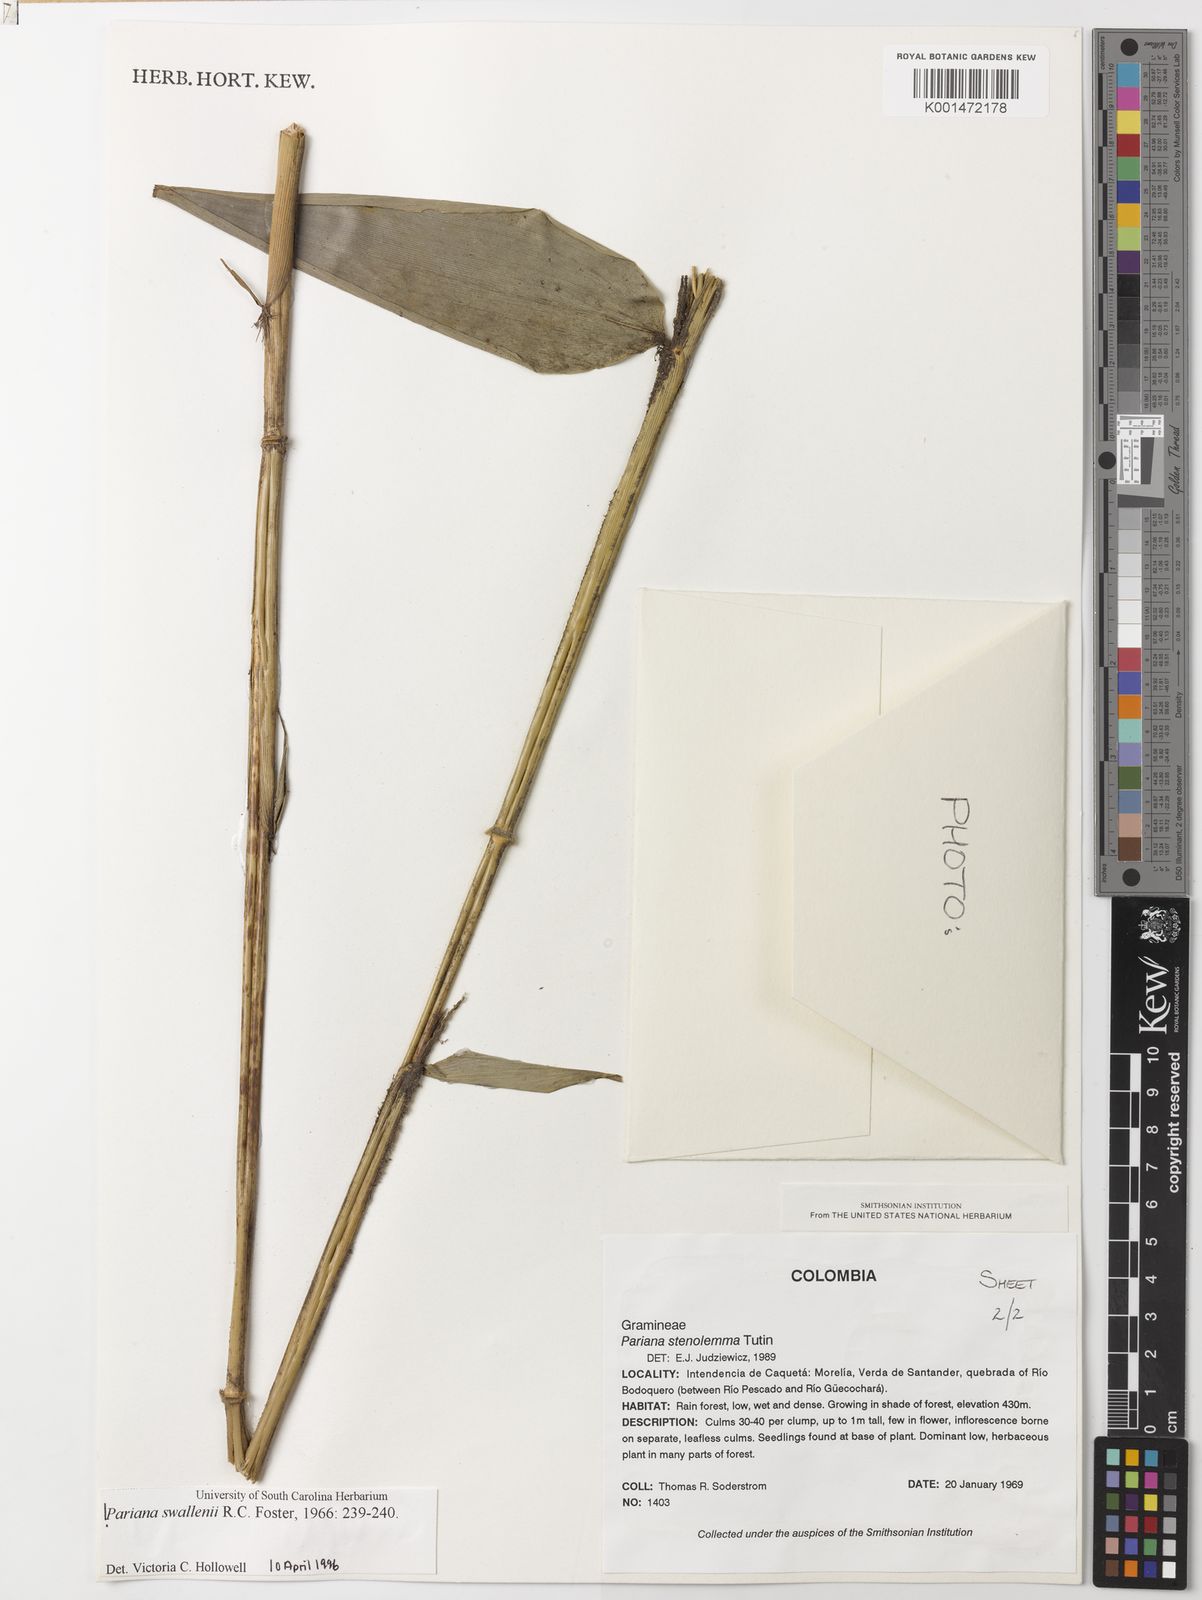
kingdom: Plantae
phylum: Tracheophyta
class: Liliopsida
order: Poales
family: Poaceae
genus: Pariana
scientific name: Pariana swallenii
